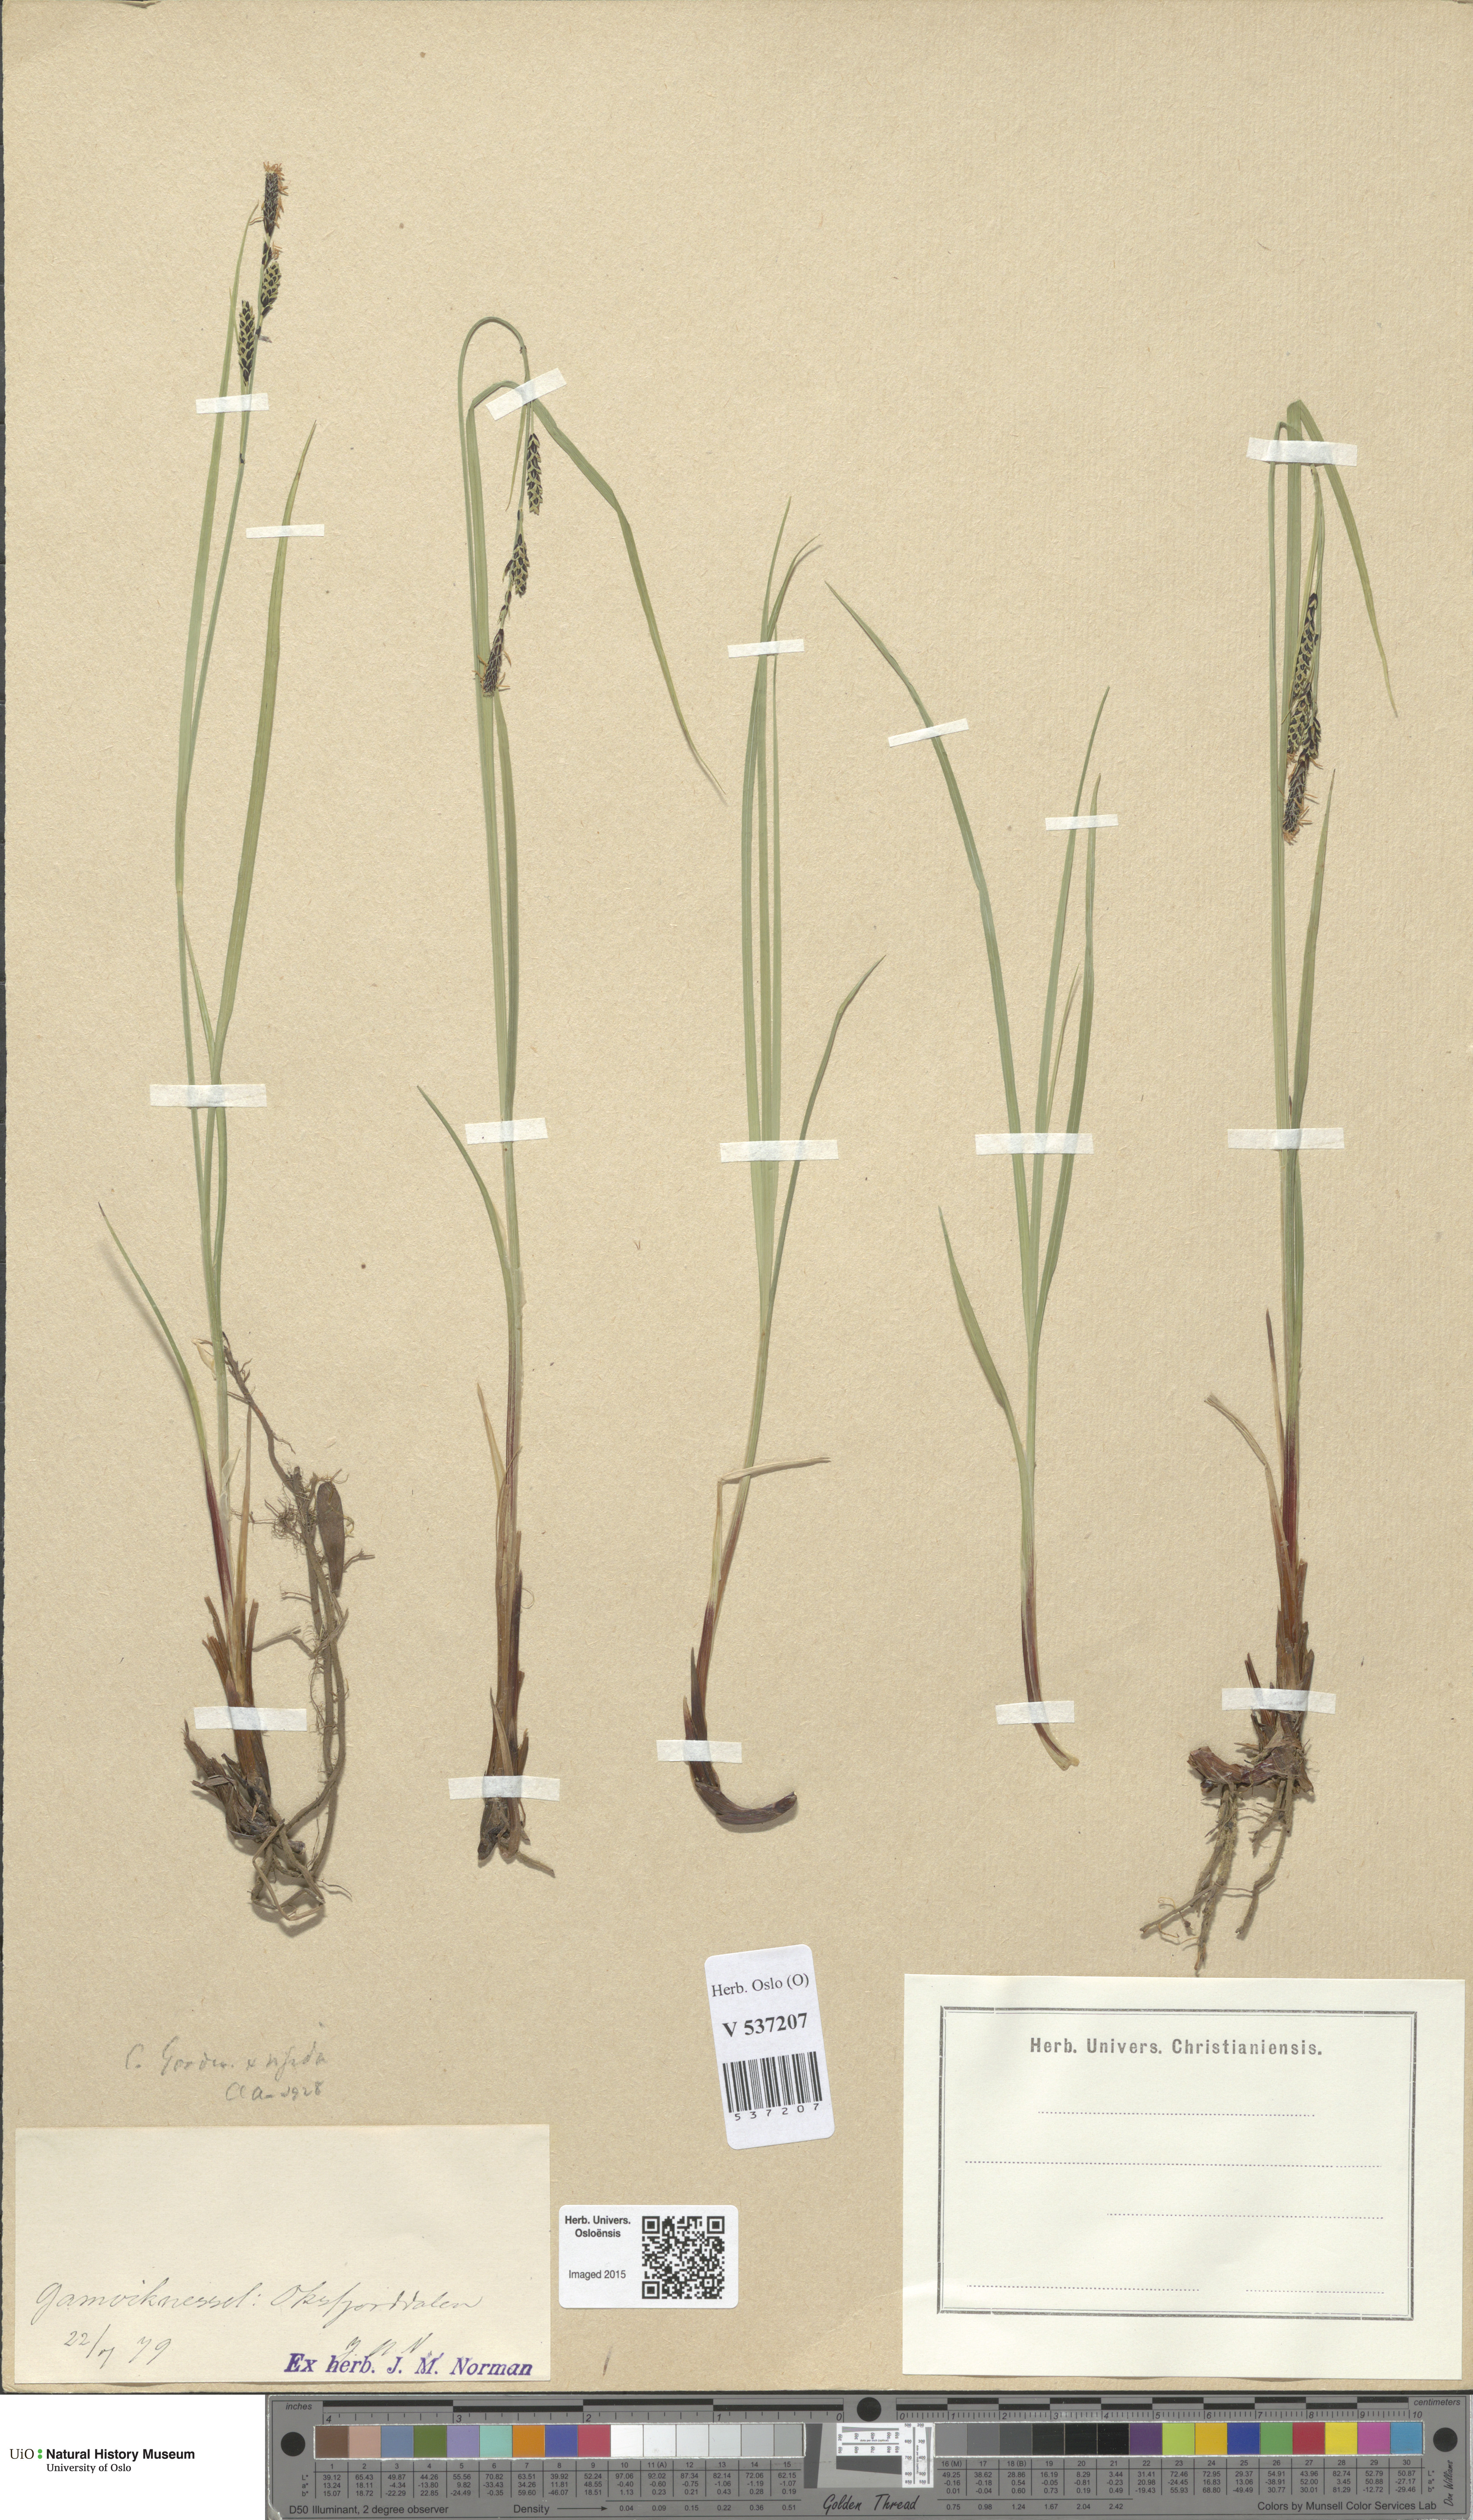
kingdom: Plantae
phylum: Tracheophyta
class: Liliopsida
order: Poales
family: Cyperaceae
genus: Carex
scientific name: Carex
